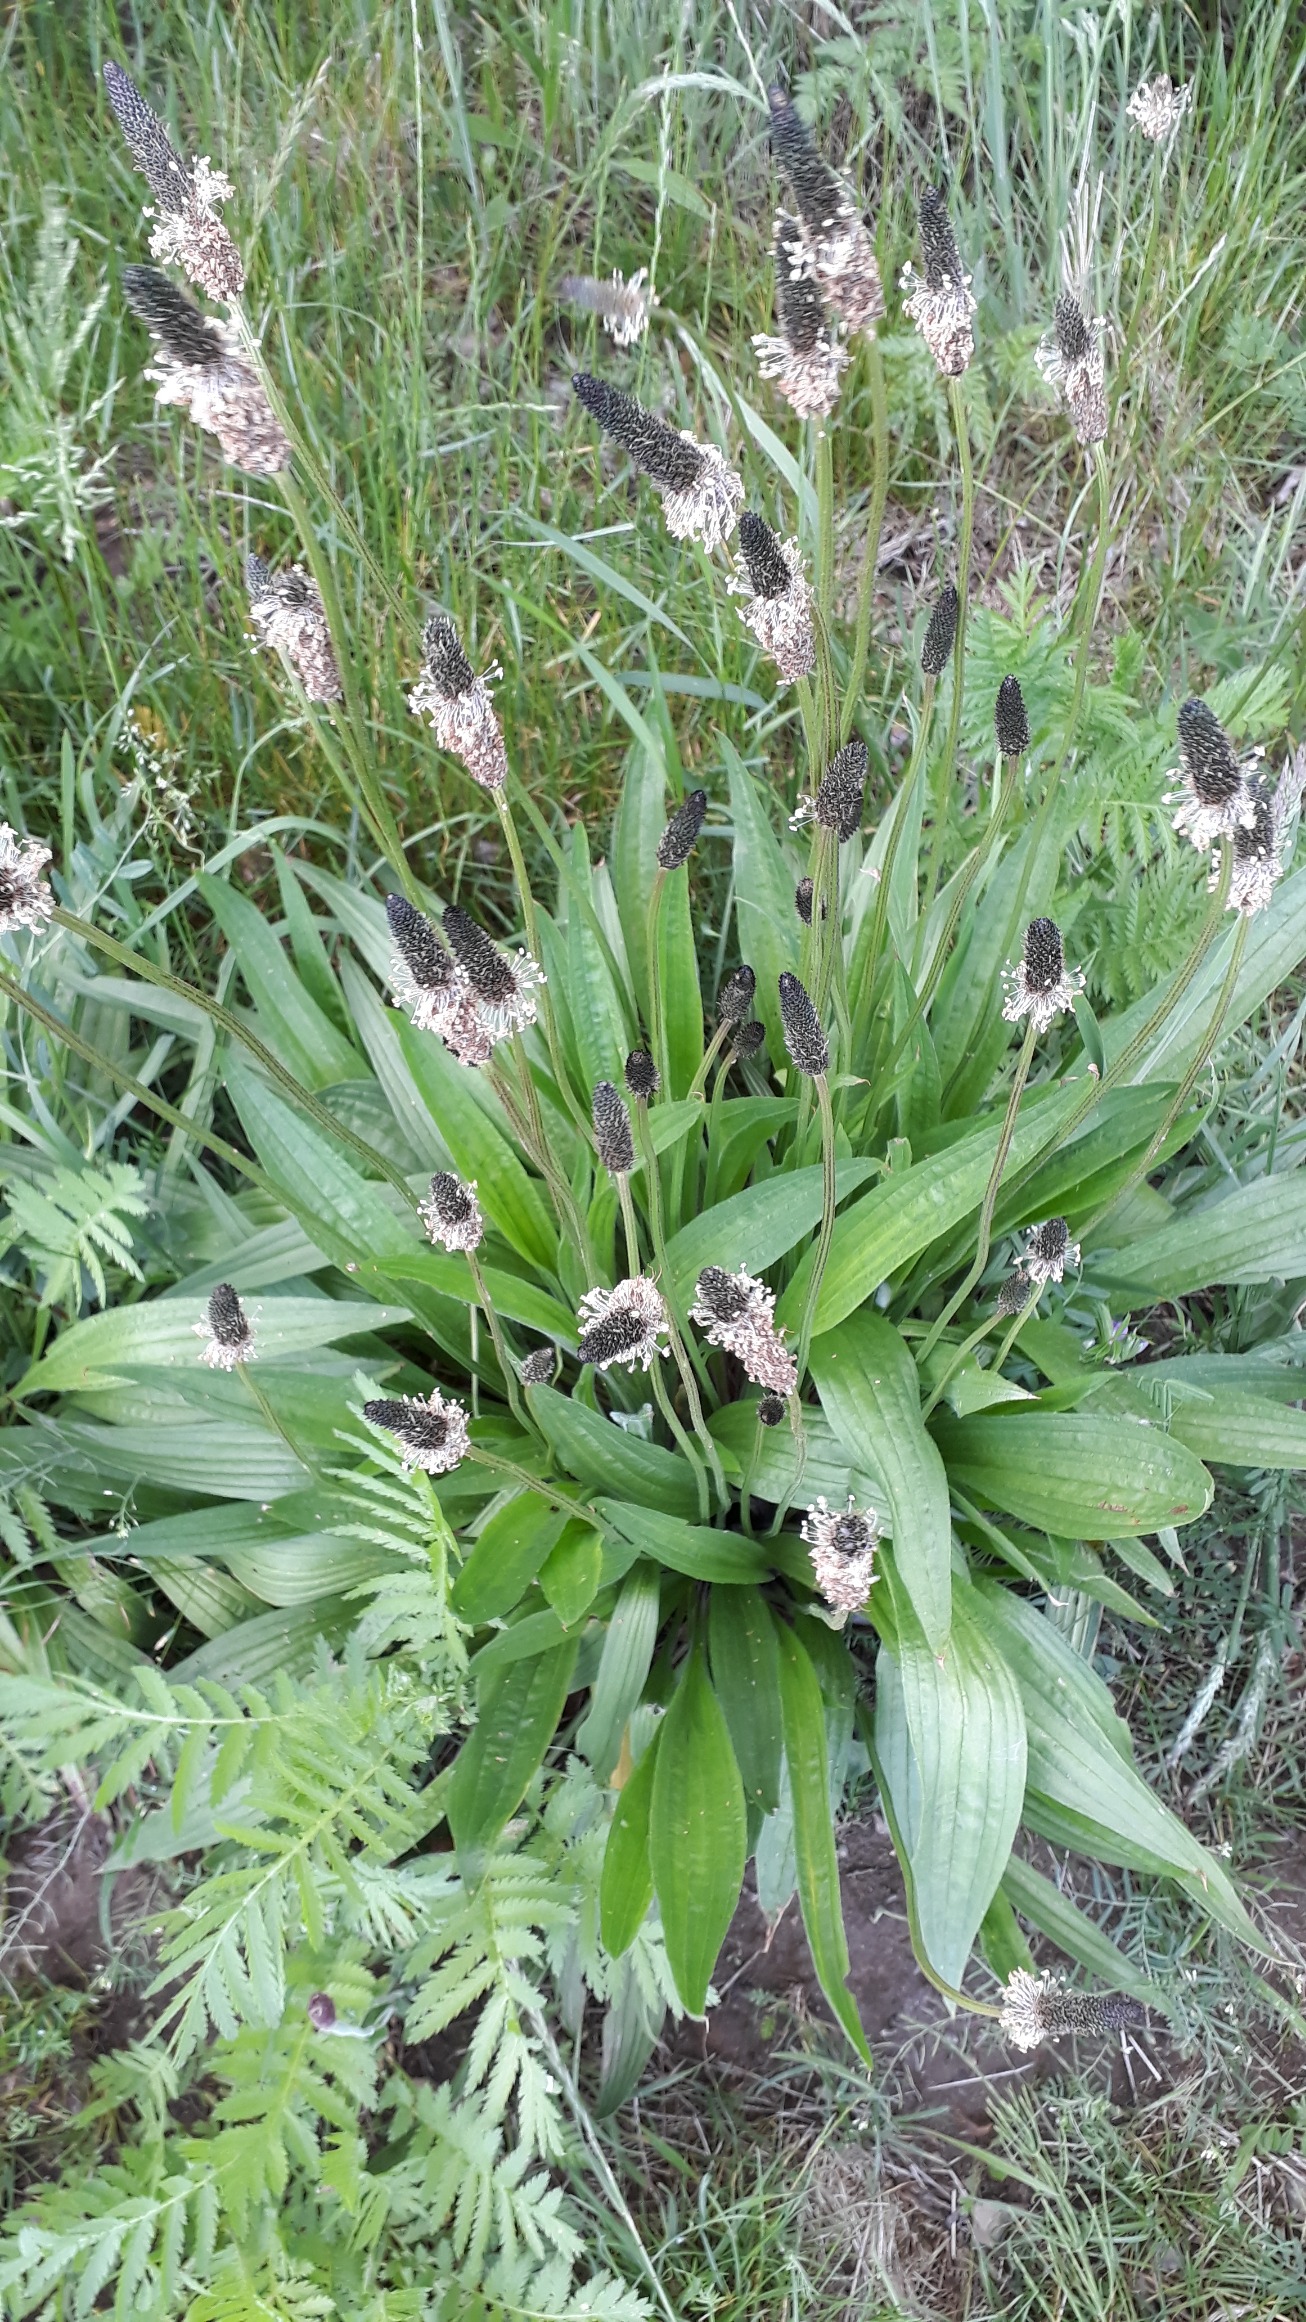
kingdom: Plantae
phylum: Tracheophyta
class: Magnoliopsida
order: Lamiales
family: Plantaginaceae
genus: Plantago
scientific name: Plantago lanceolata
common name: Lancet-vejbred
